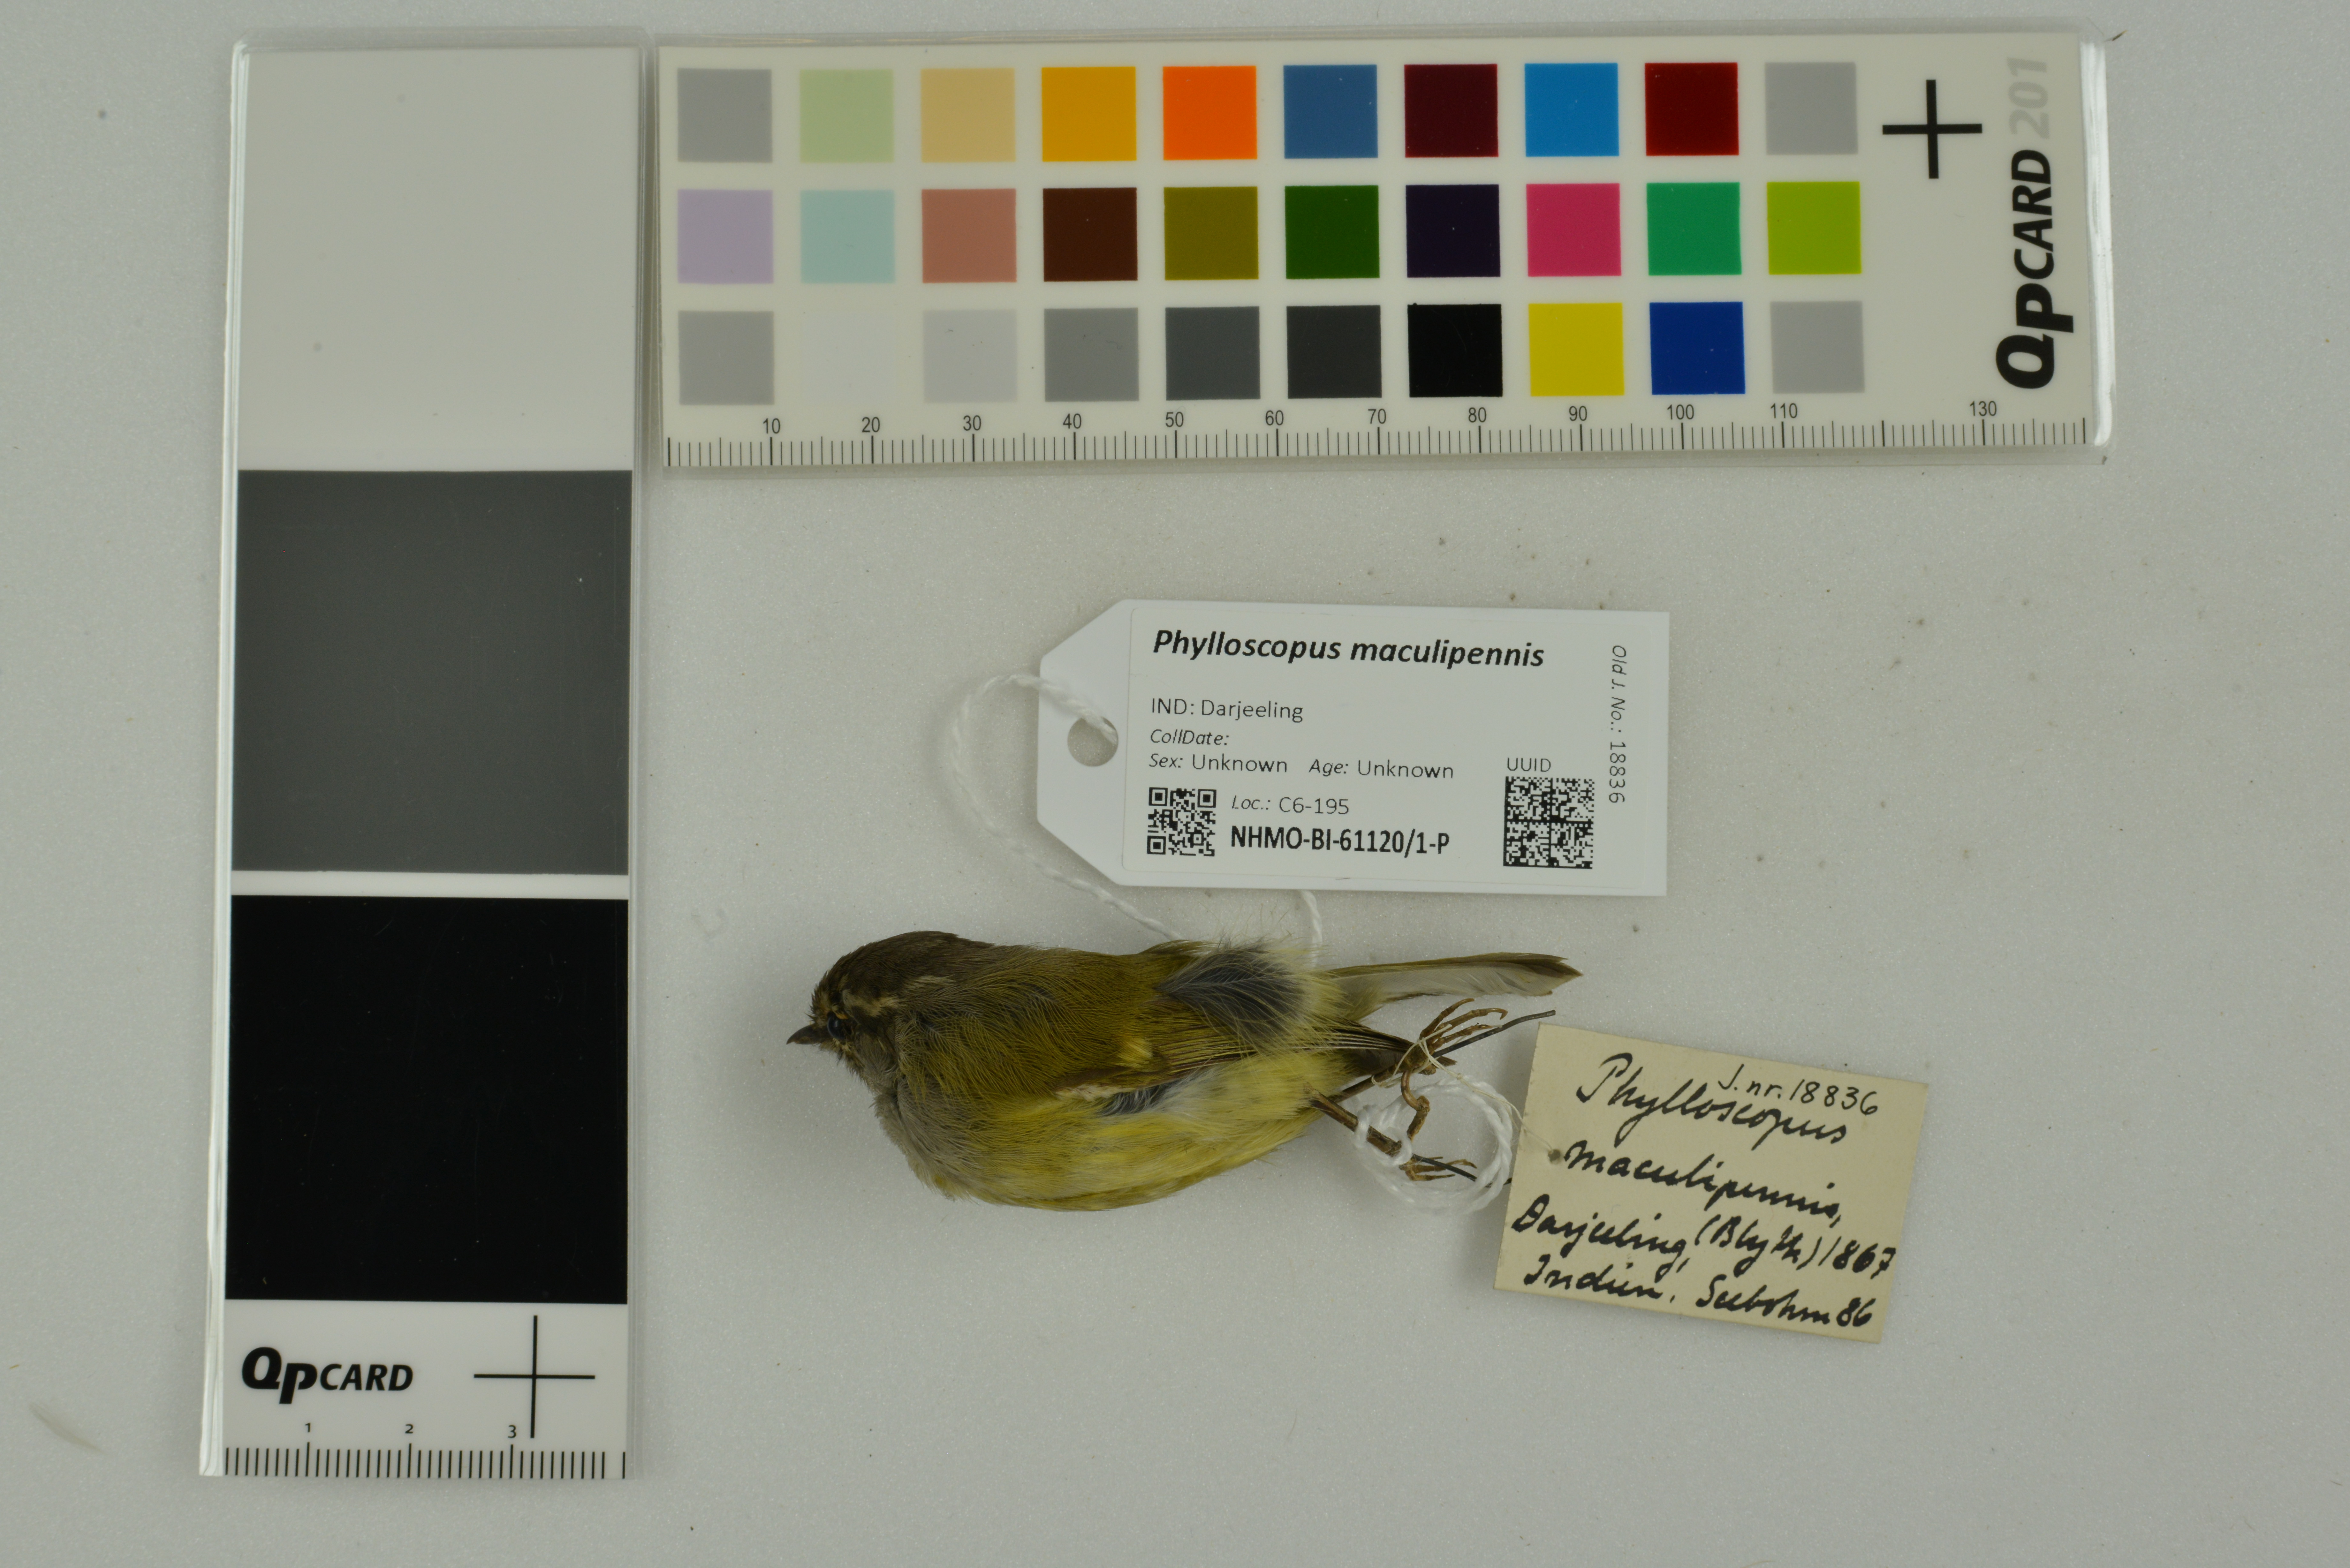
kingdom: Animalia
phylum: Chordata
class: Aves
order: Passeriformes
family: Phylloscopidae
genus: Phylloscopus
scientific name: Phylloscopus maculipennis
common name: Ashy-throated warbler
